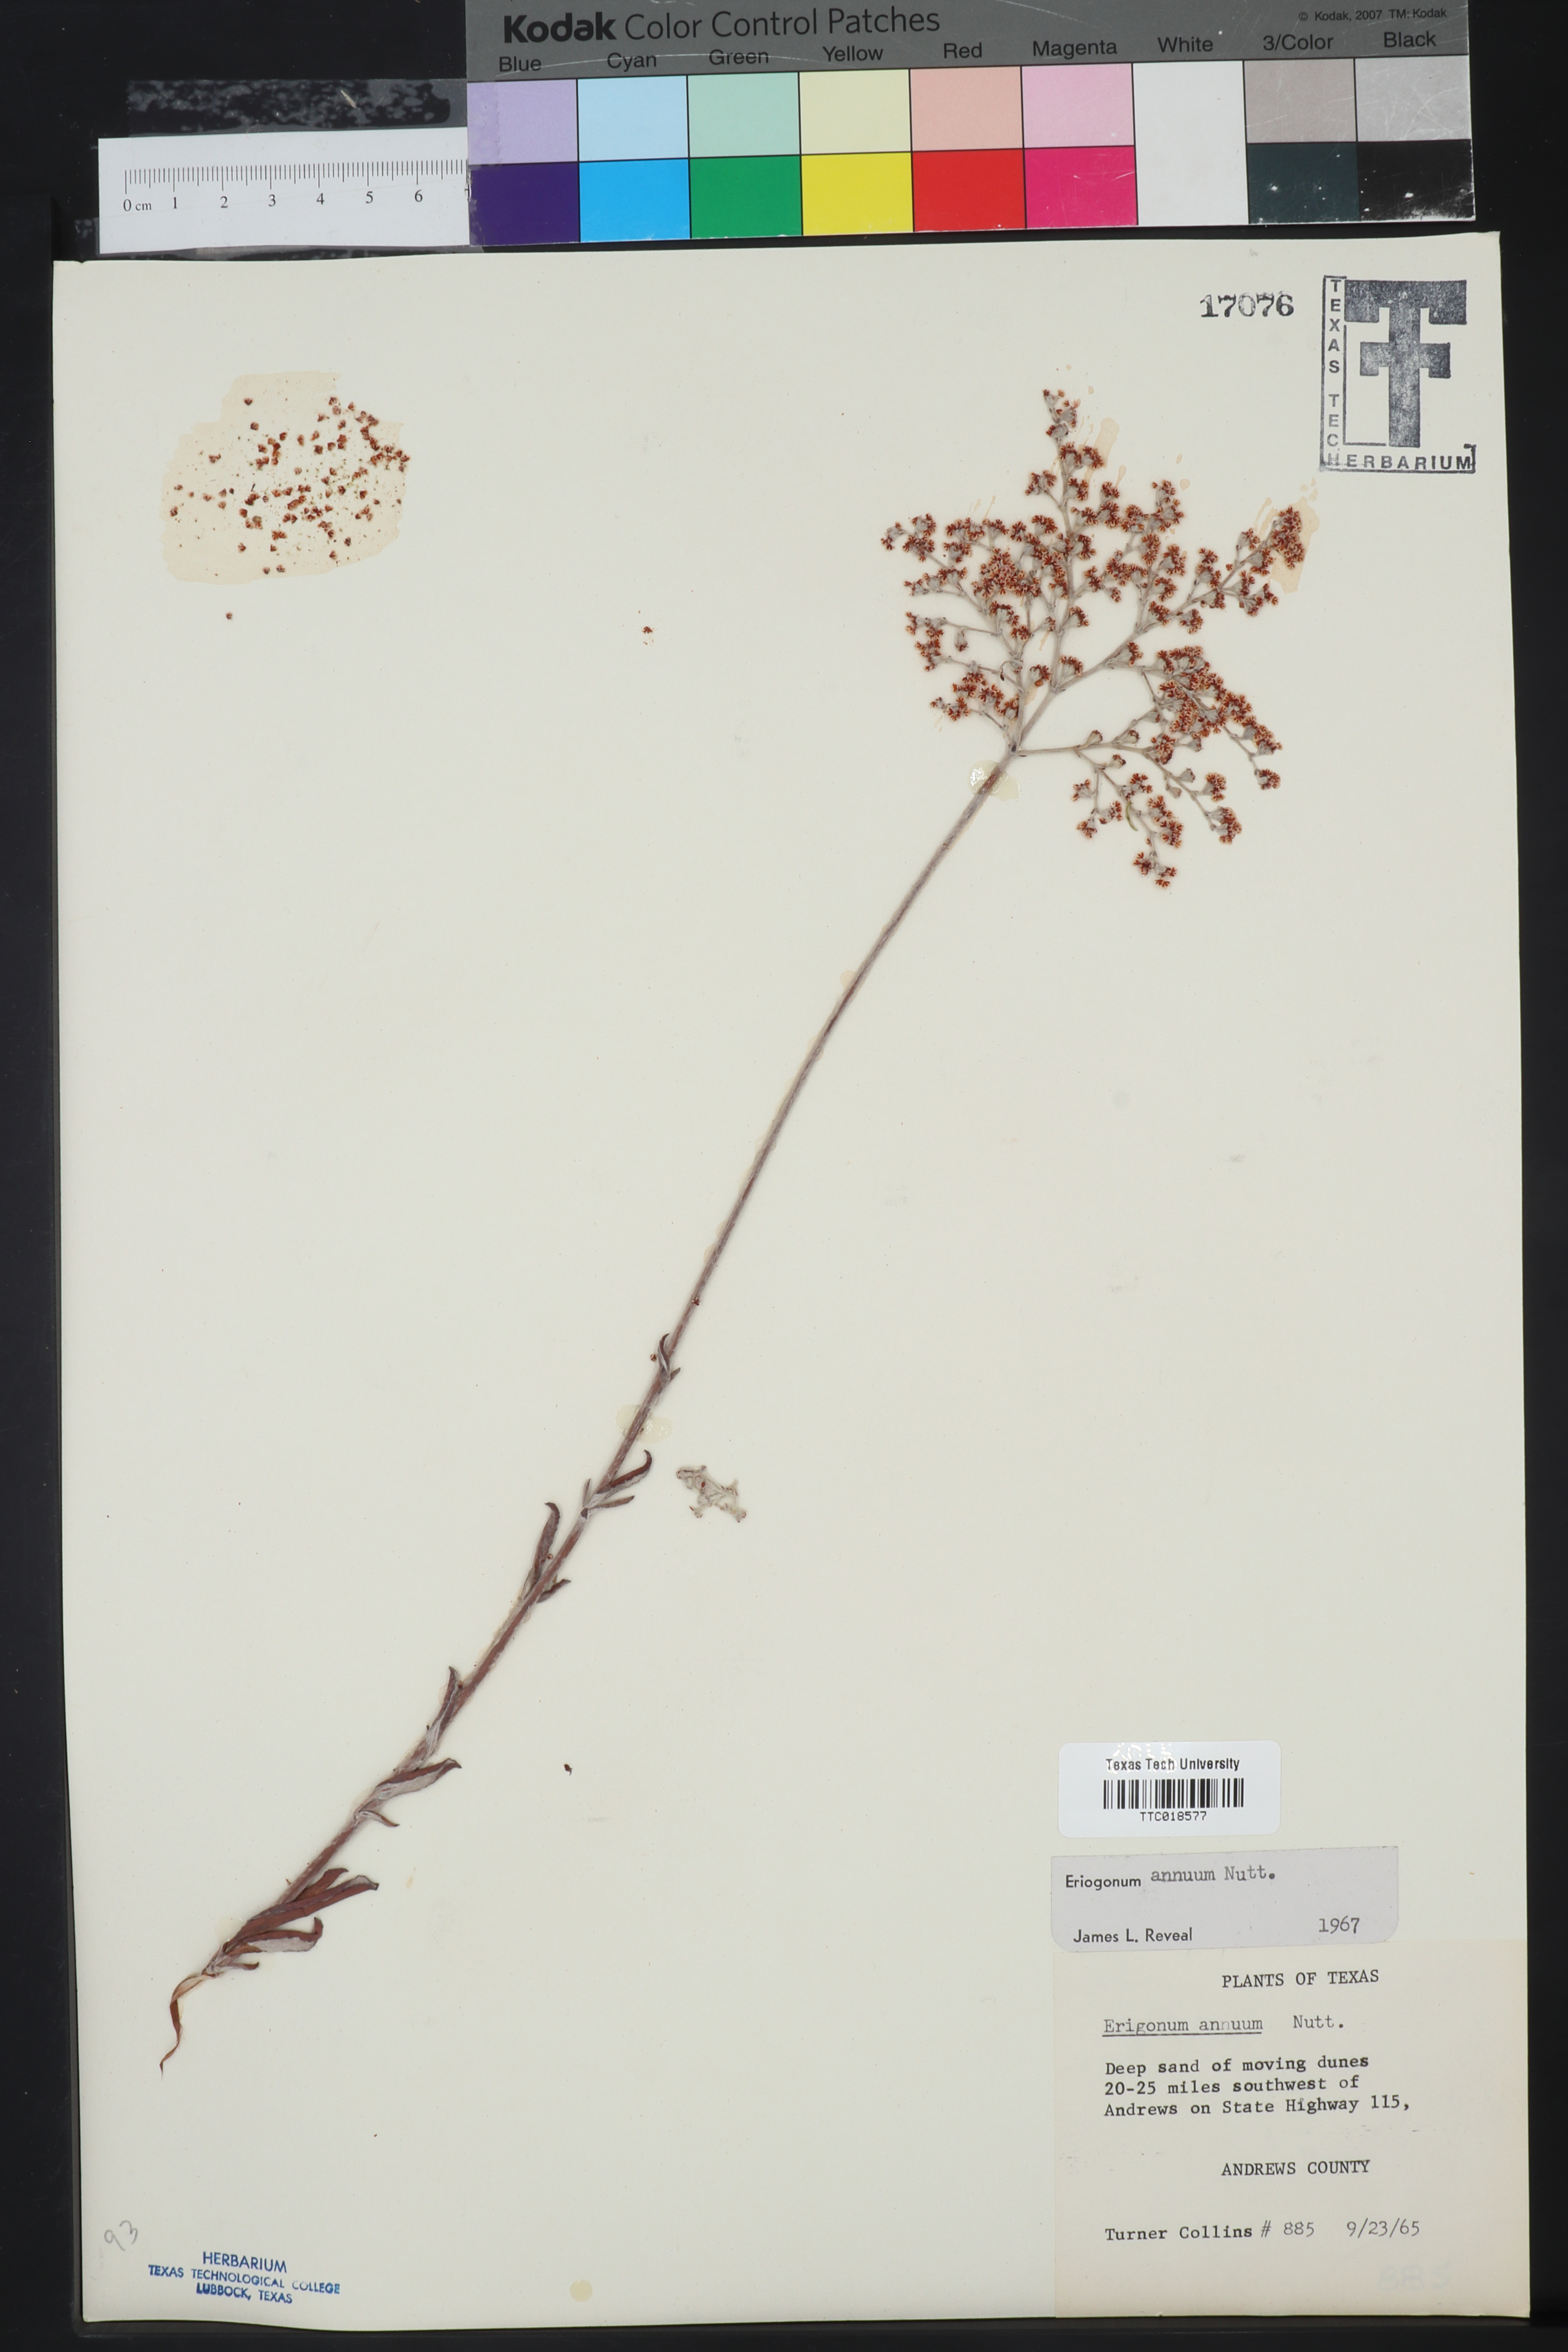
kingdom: Plantae
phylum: Tracheophyta
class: Magnoliopsida
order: Caryophyllales
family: Polygonaceae
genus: Eriogonum
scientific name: Eriogonum annuum
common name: Annual wild buckwheat
